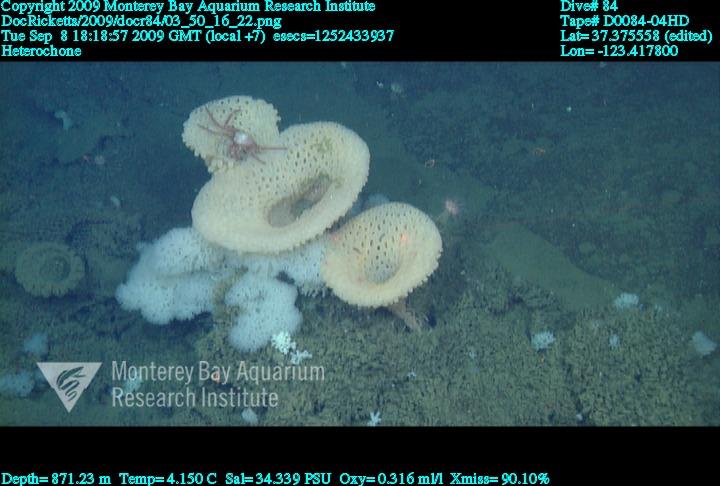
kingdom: Animalia
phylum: Porifera
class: Hexactinellida
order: Sceptrulophora
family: Aphrocallistidae
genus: Heterochone
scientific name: Heterochone
